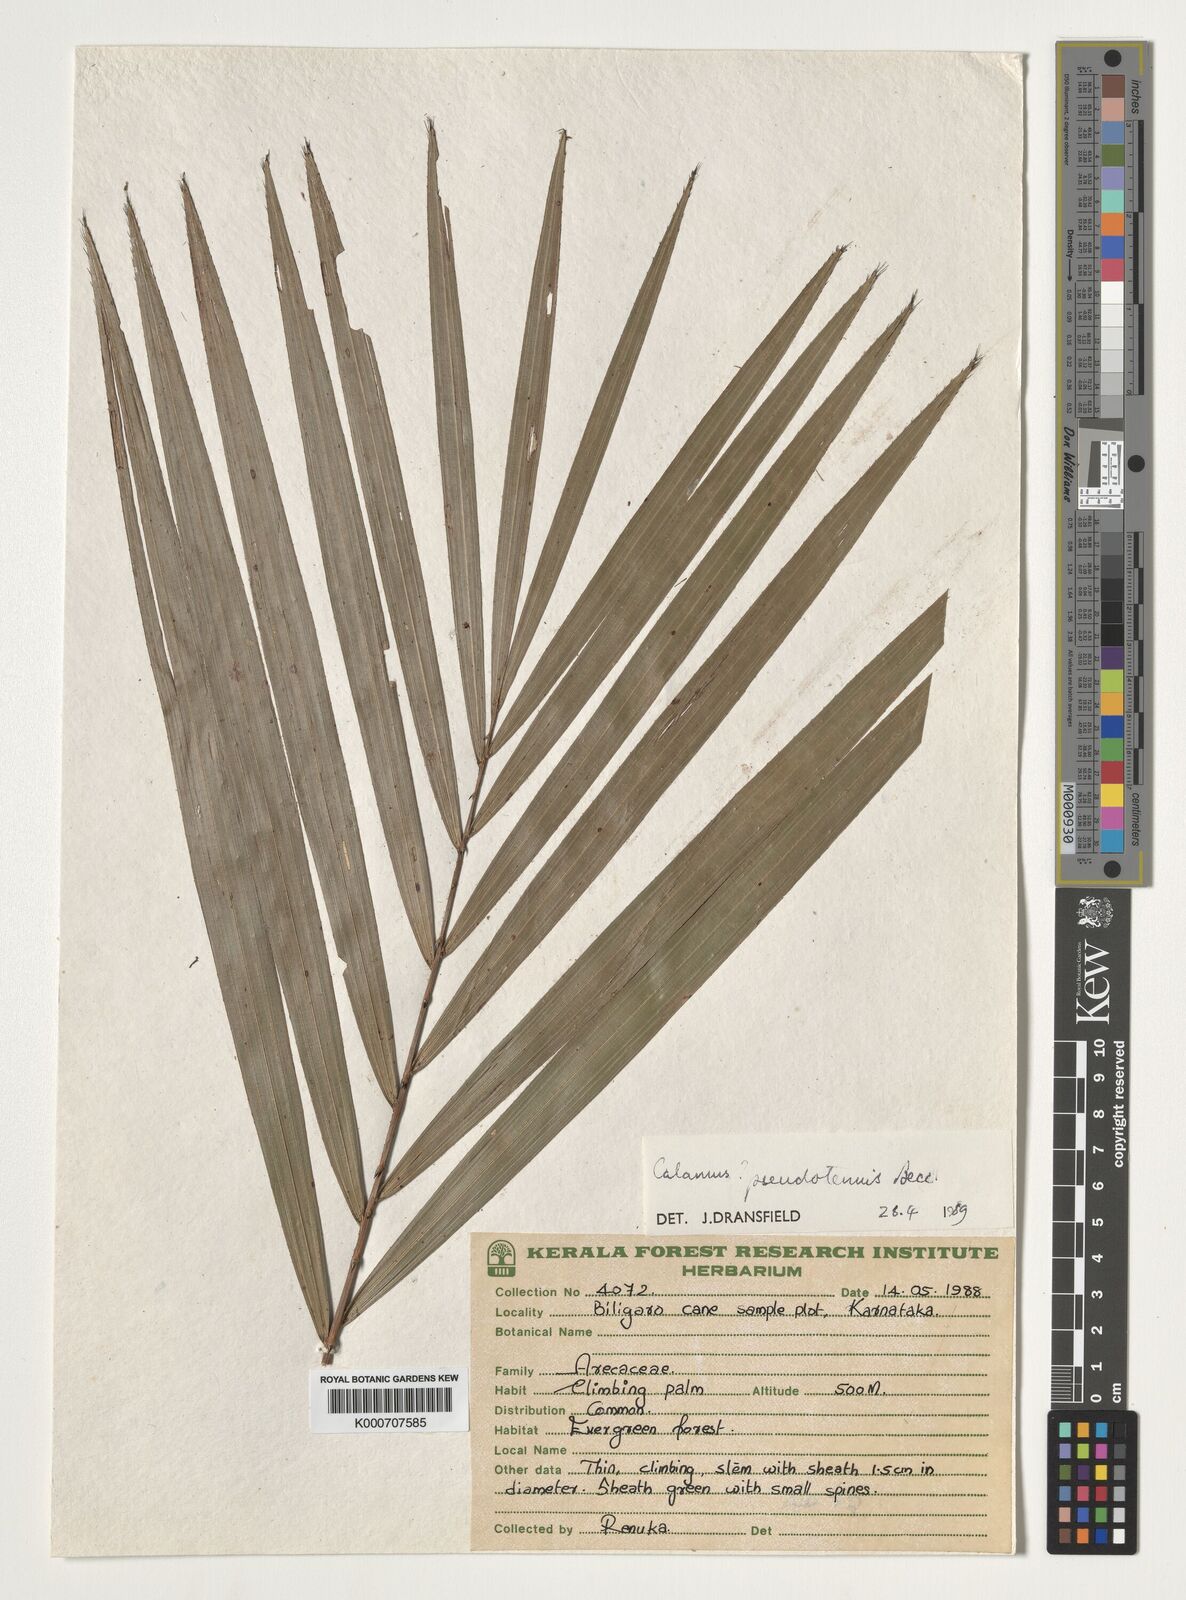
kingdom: Plantae
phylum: Tracheophyta
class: Liliopsida
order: Arecales
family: Arecaceae
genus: Calamus
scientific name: Calamus pseudotenuis
